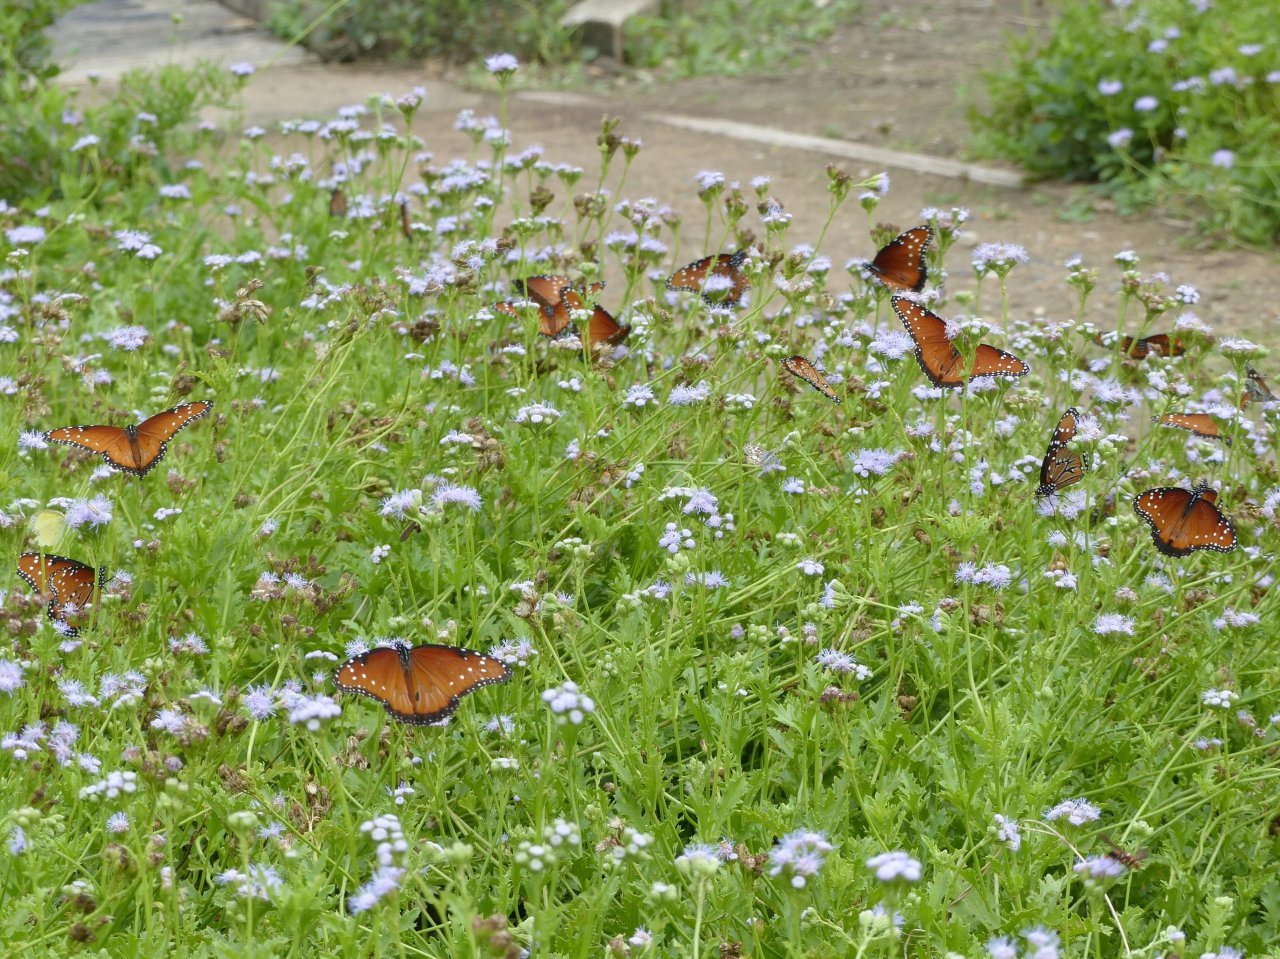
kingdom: Animalia
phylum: Arthropoda
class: Insecta
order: Lepidoptera
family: Nymphalidae
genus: Danaus
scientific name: Danaus gilippus
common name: Queen
